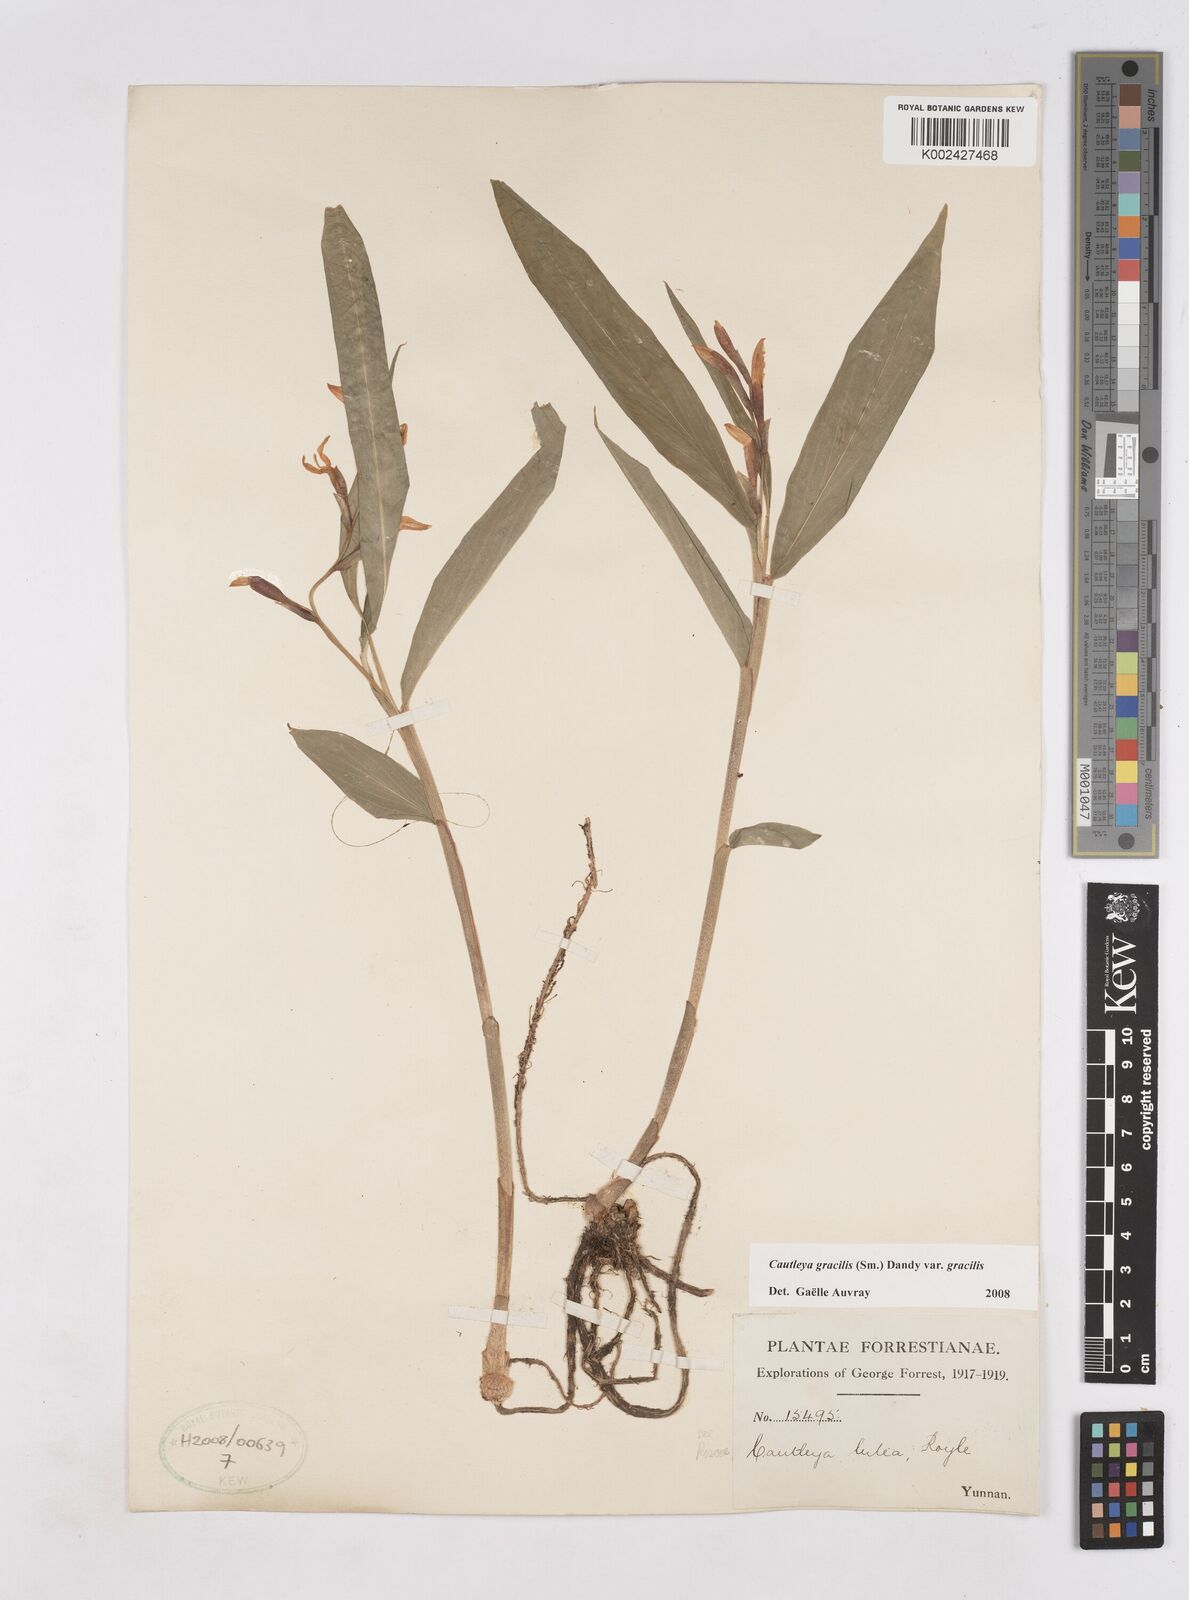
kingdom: Plantae
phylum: Tracheophyta
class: Liliopsida
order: Zingiberales
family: Zingiberaceae
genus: Cautleya
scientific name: Cautleya gracilis
